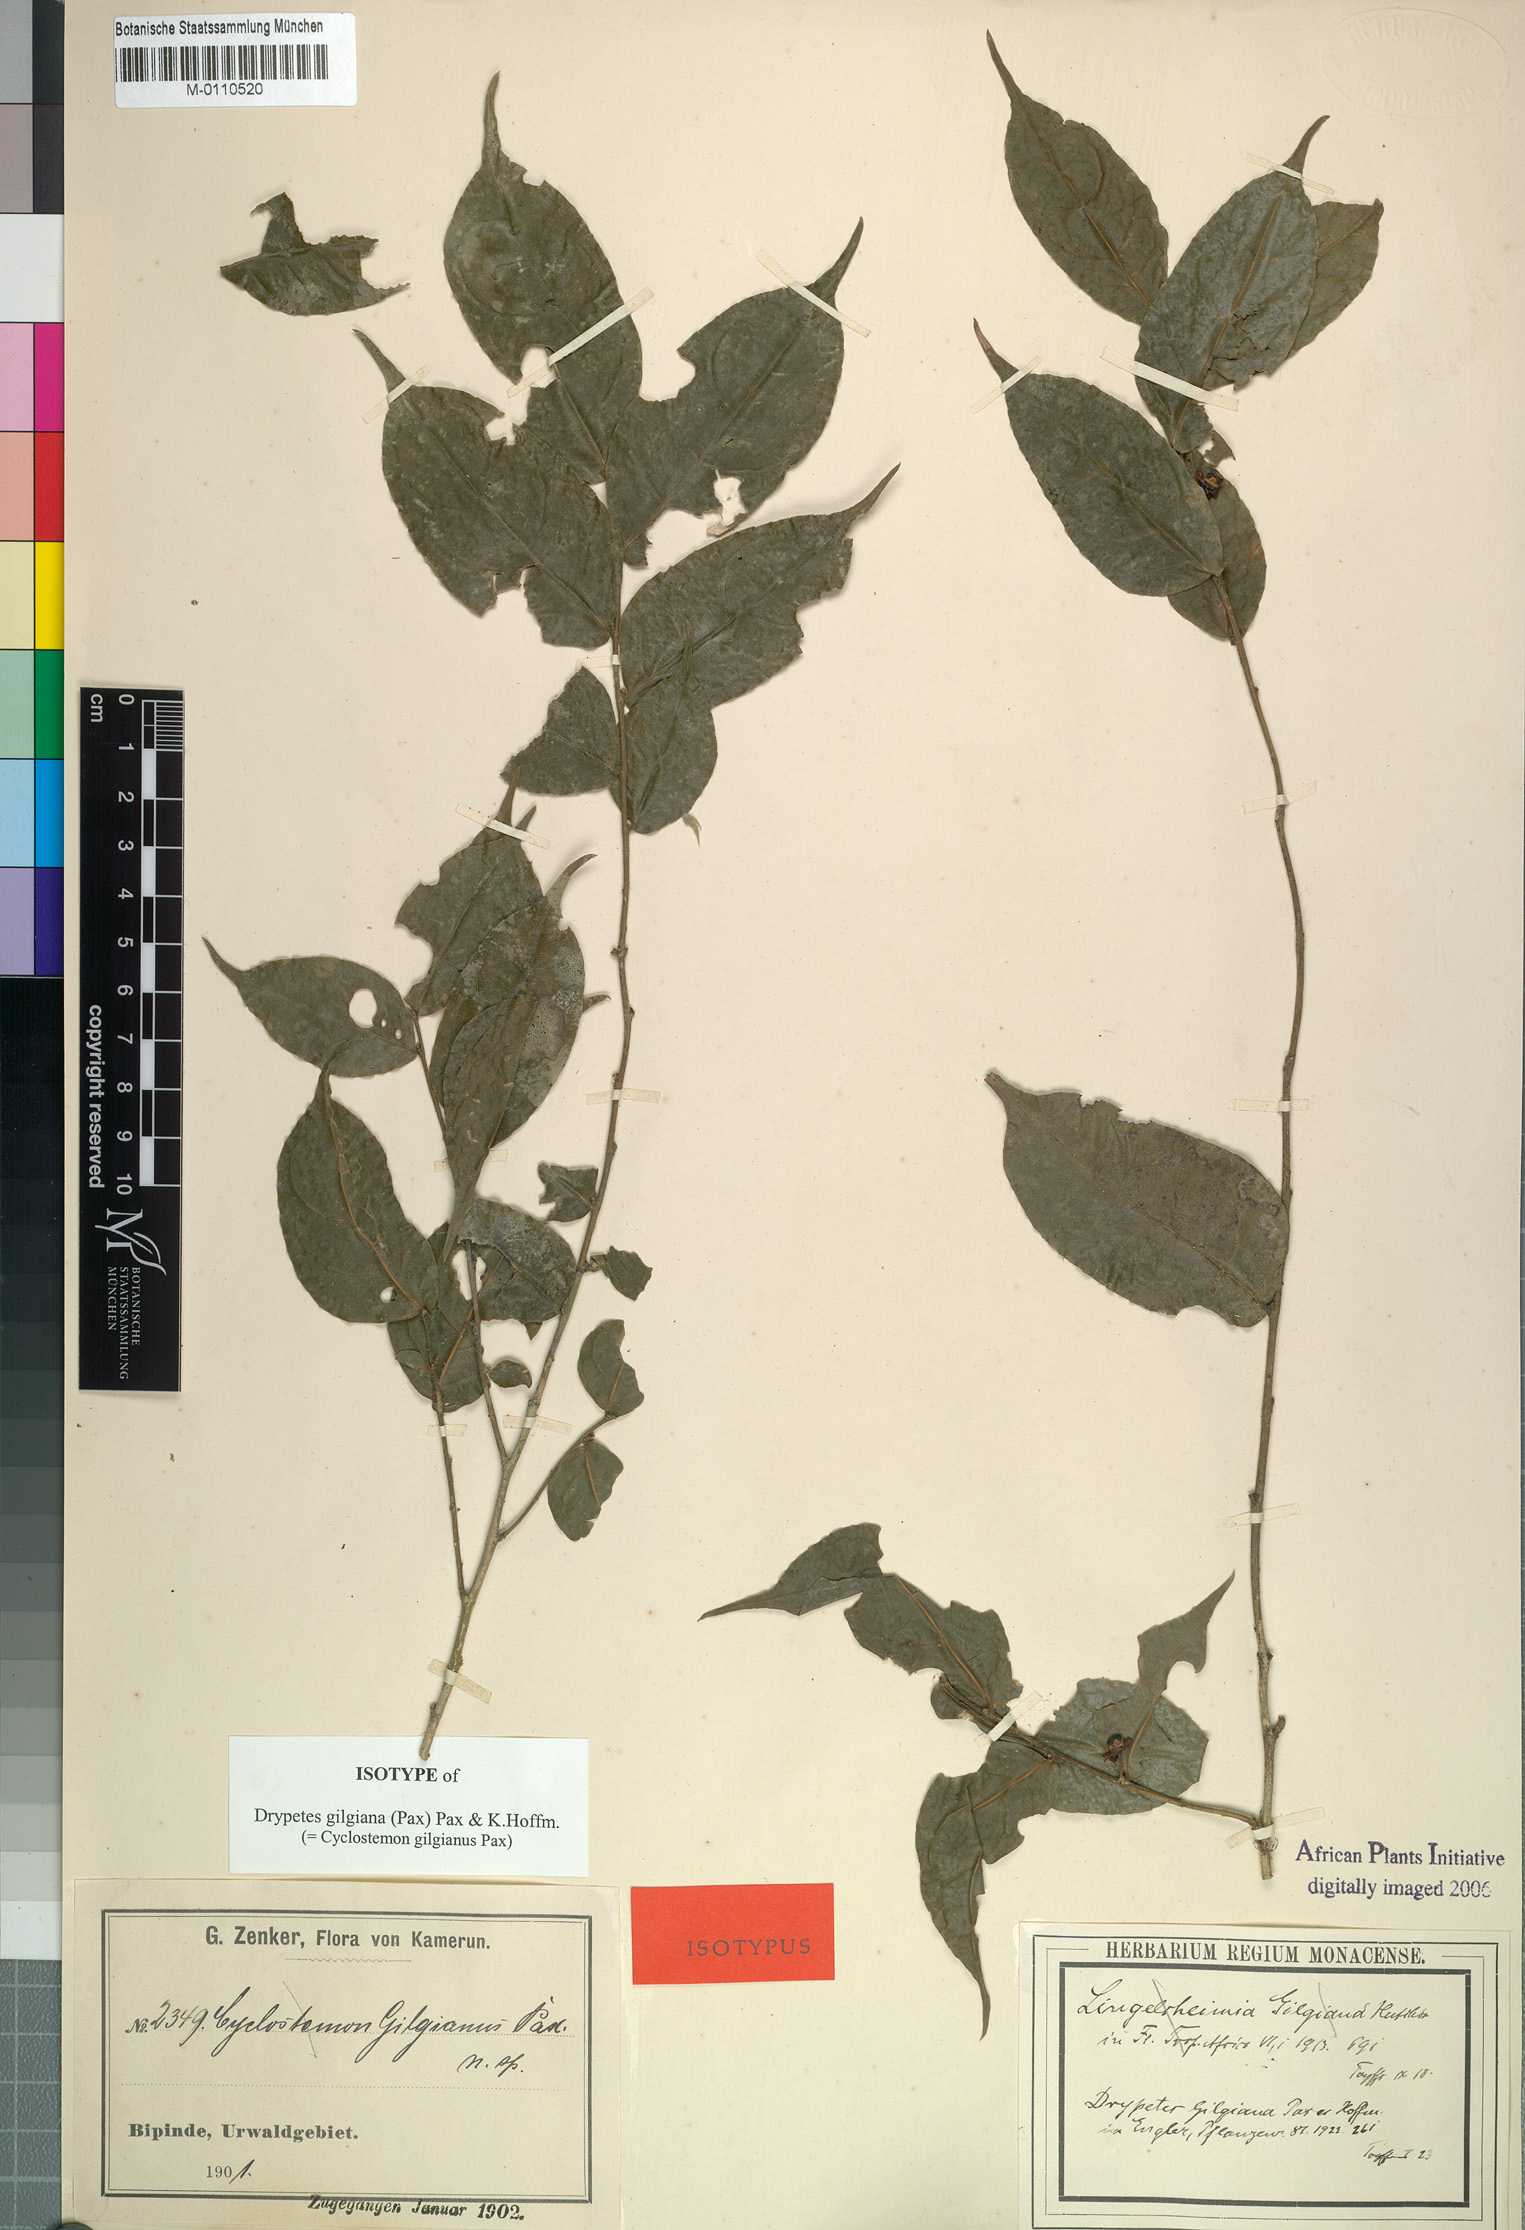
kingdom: Plantae
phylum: Tracheophyta
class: Magnoliopsida
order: Malpighiales
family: Putranjivaceae
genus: Drypetes
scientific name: Drypetes gilgiana
